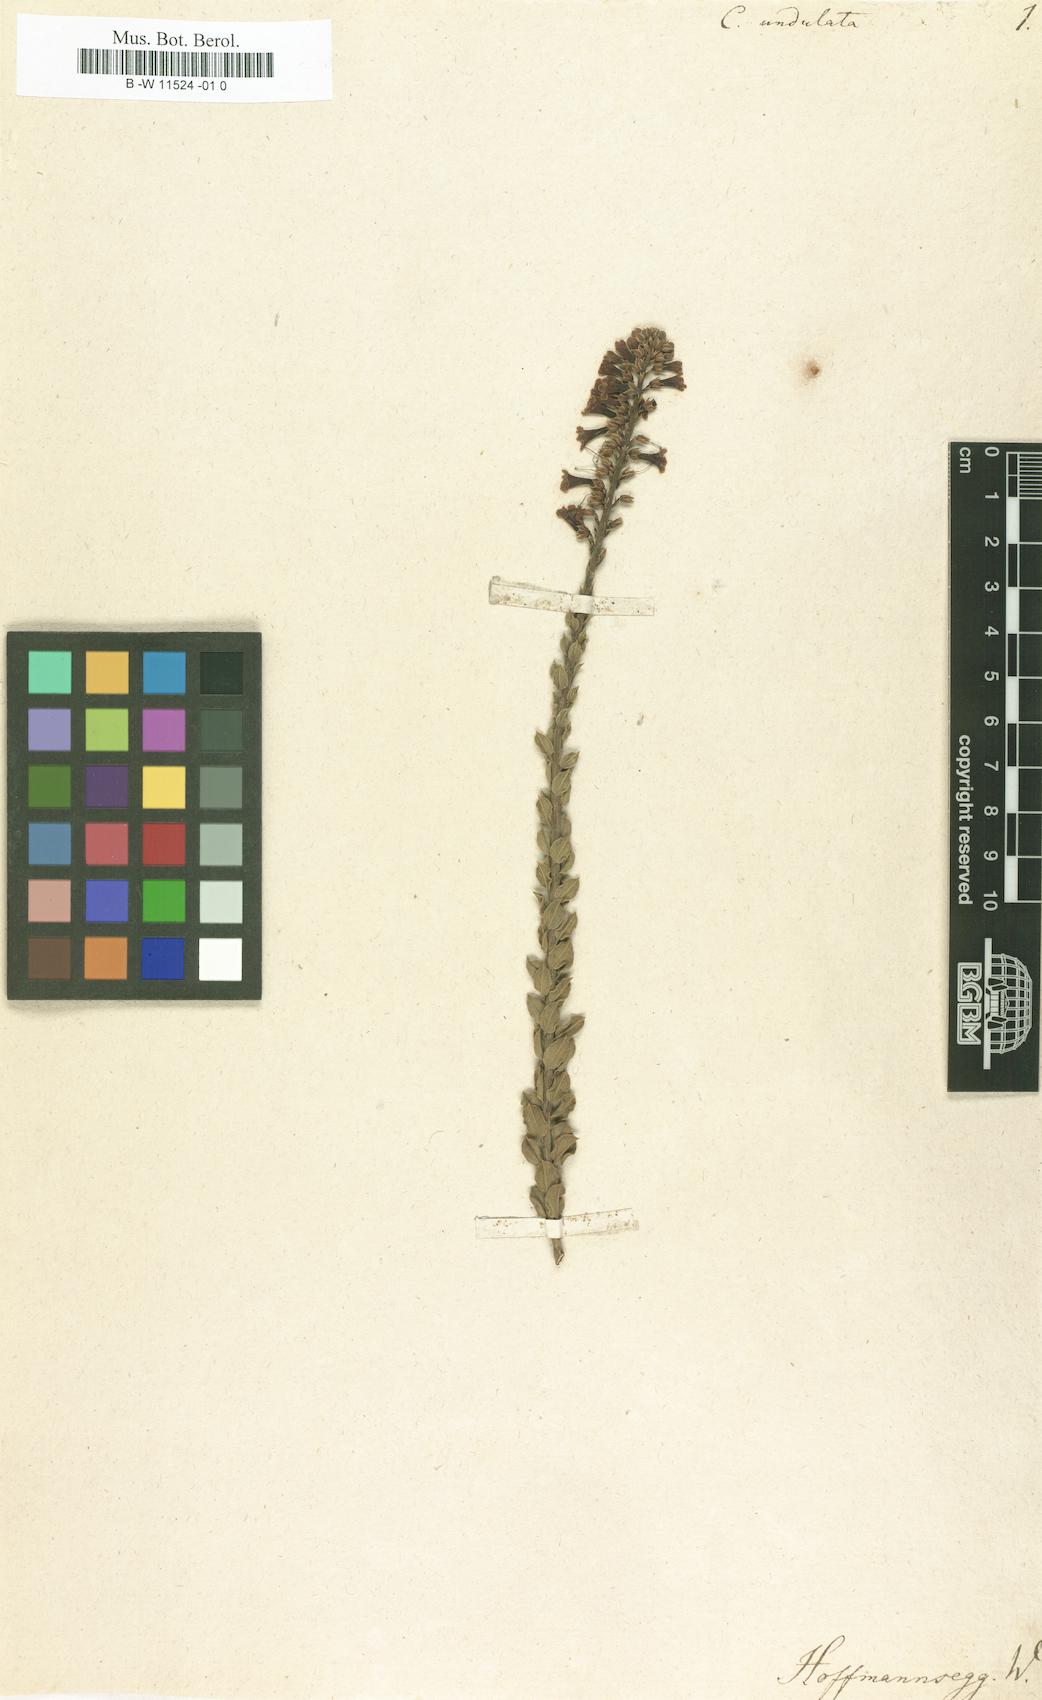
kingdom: Plantae
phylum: Tracheophyta
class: Magnoliopsida
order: Lamiales
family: Scrophulariaceae
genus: Freylinia
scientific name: Freylinia undulata
